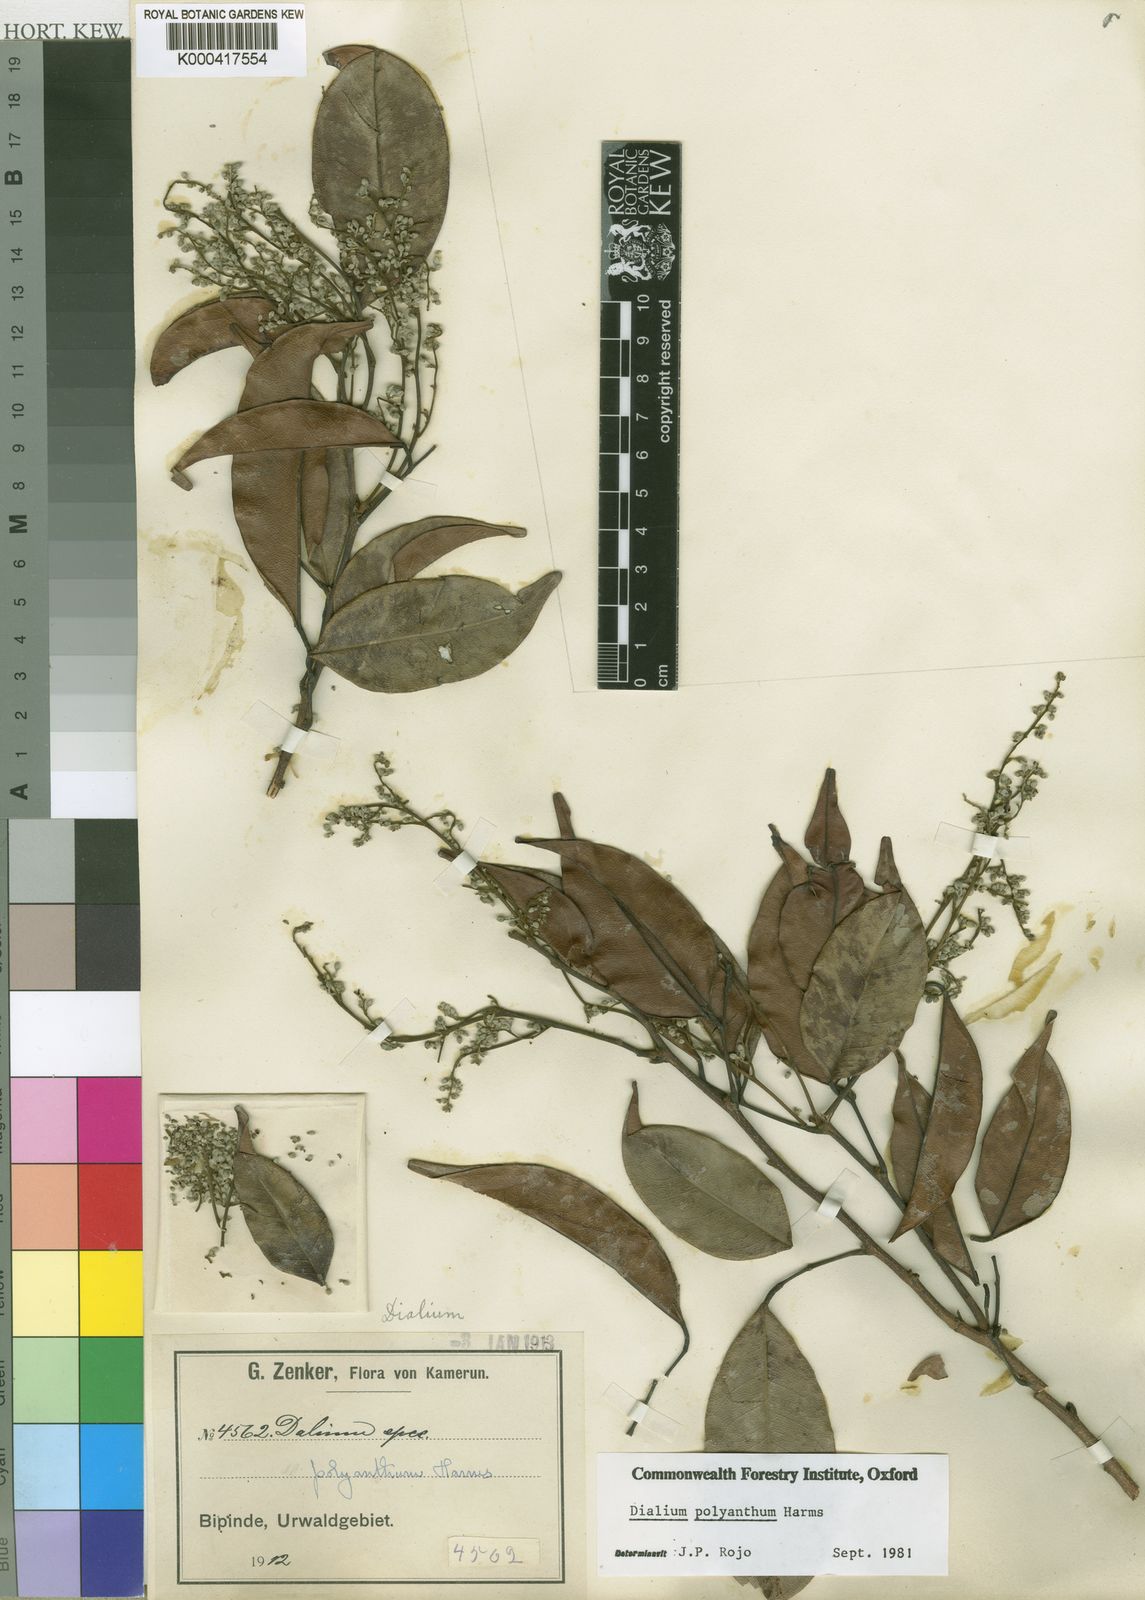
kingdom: Plantae
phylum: Tracheophyta
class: Magnoliopsida
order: Fabales
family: Fabaceae
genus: Dialium
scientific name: Dialium polyanthum
